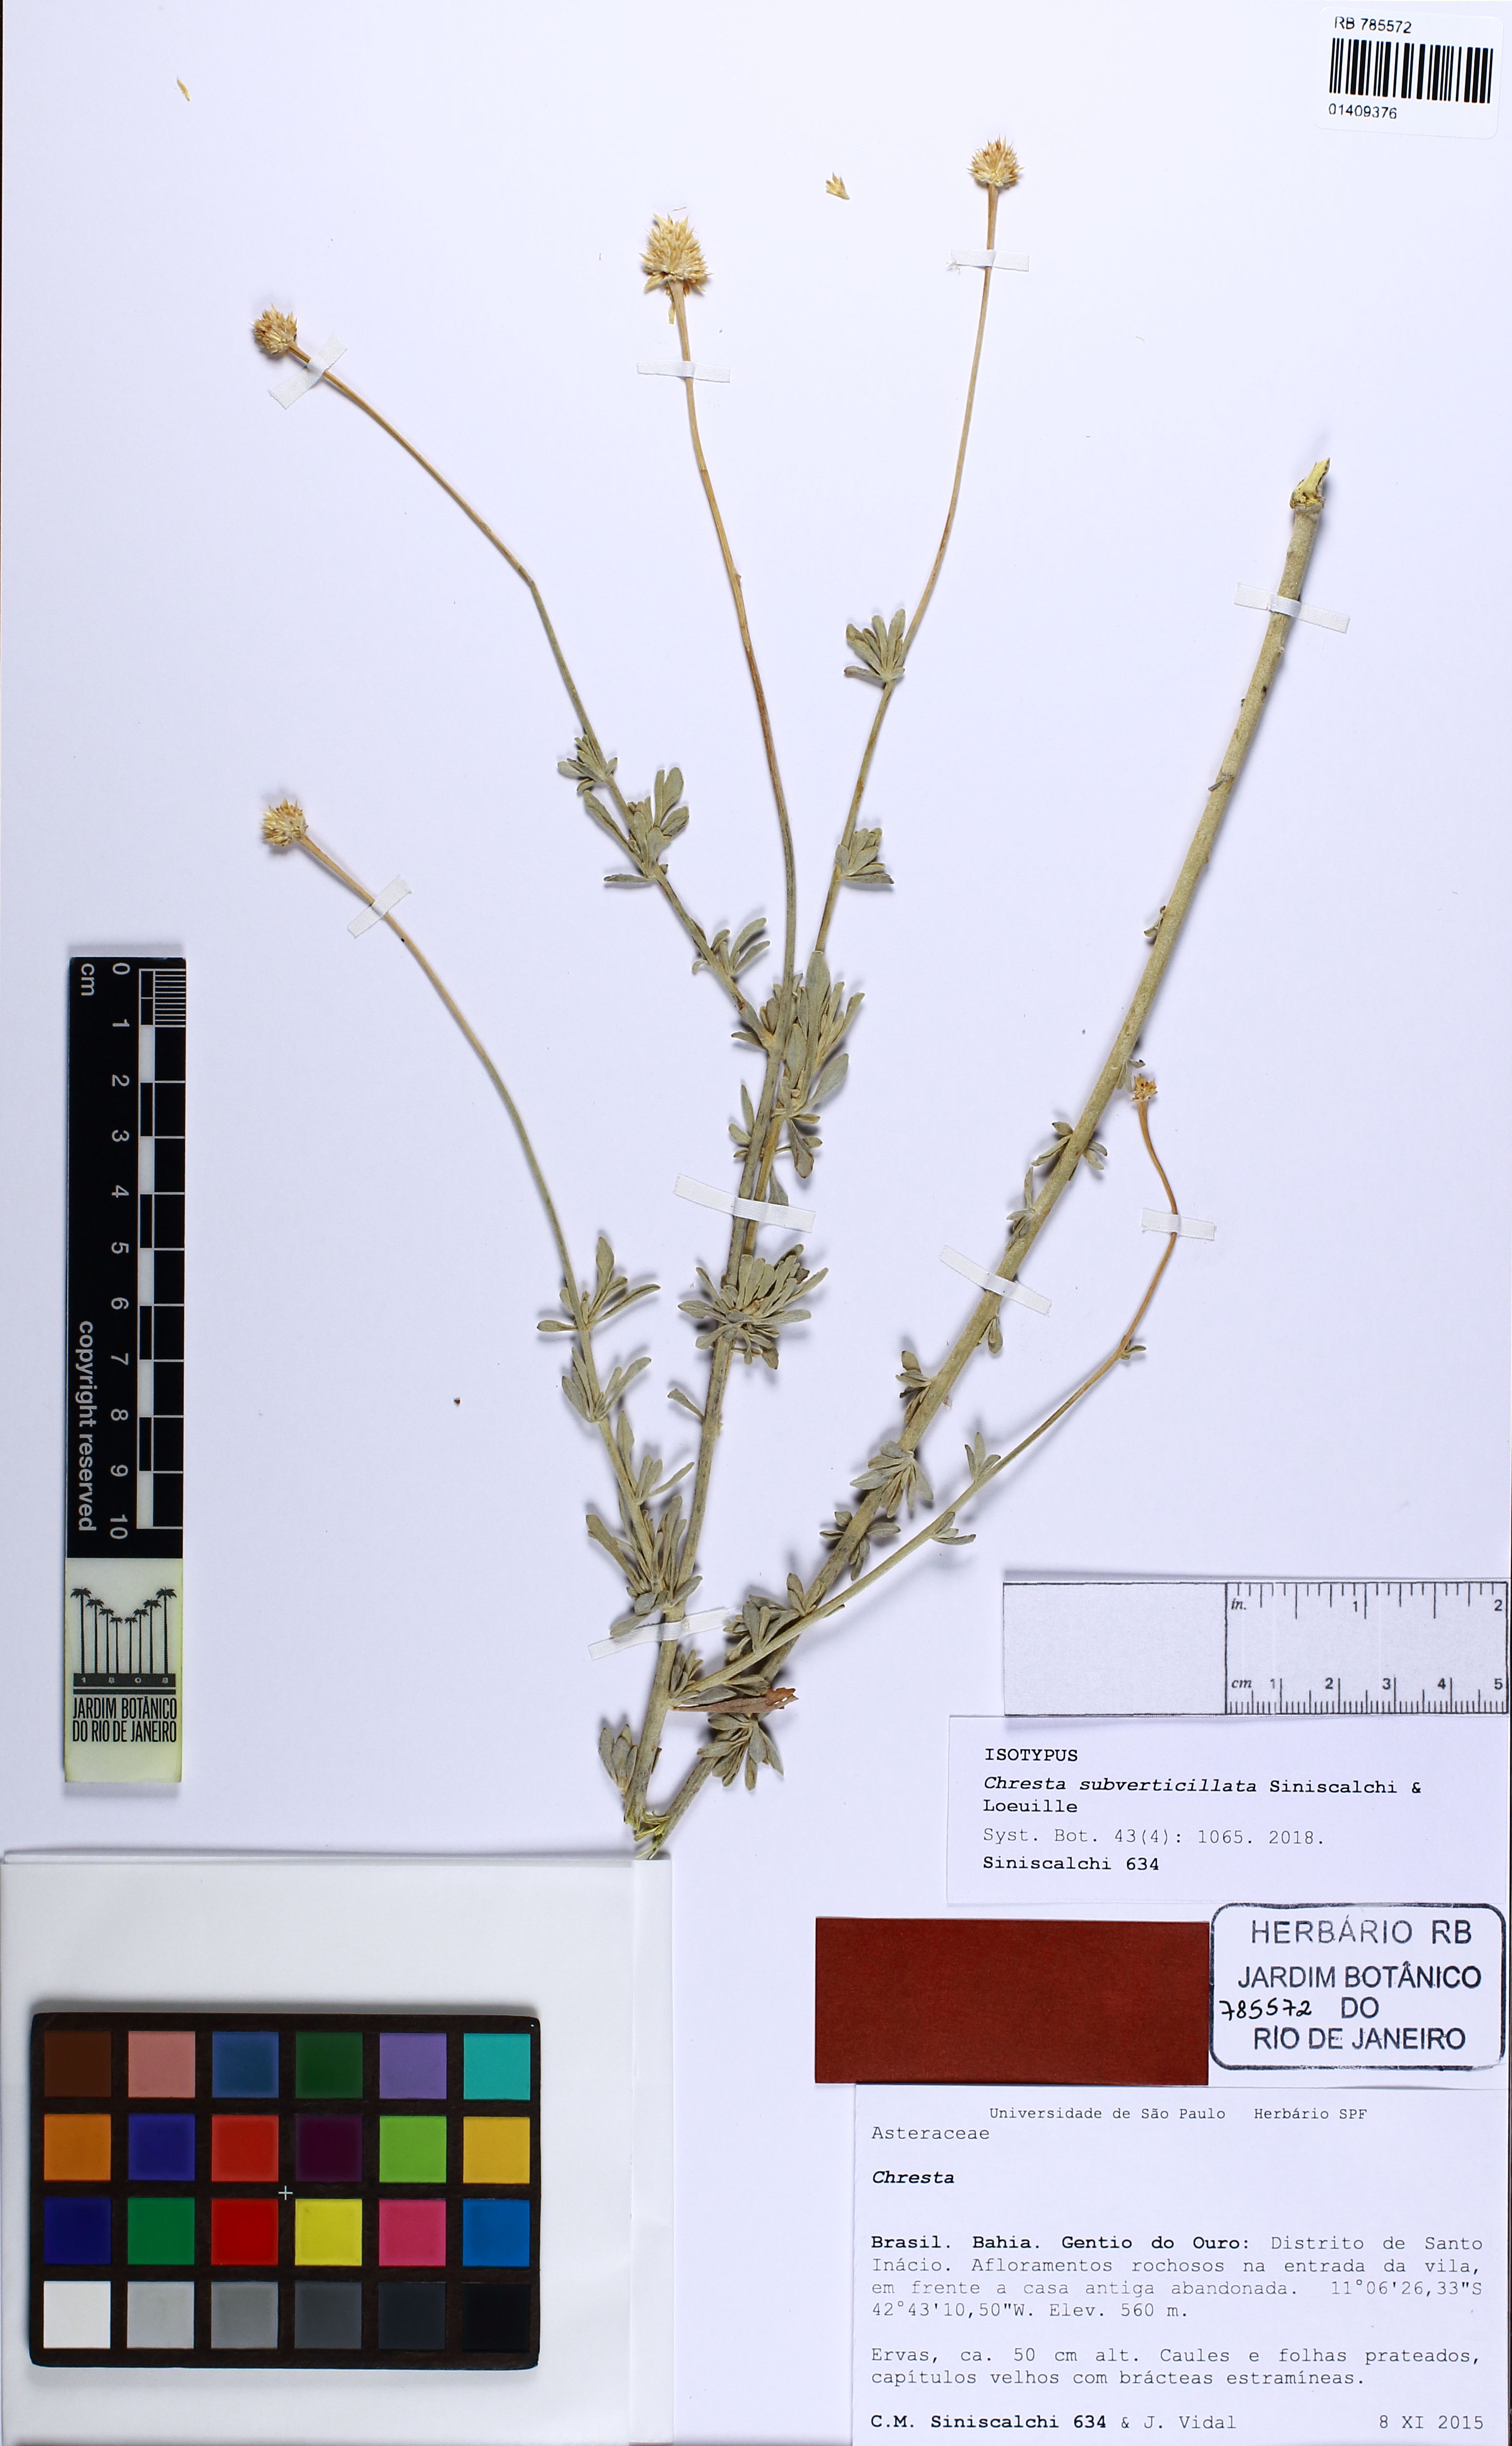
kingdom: Plantae
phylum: Tracheophyta
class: Magnoliopsida
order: Asterales
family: Asteraceae
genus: Chresta
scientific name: Chresta subverticillata
